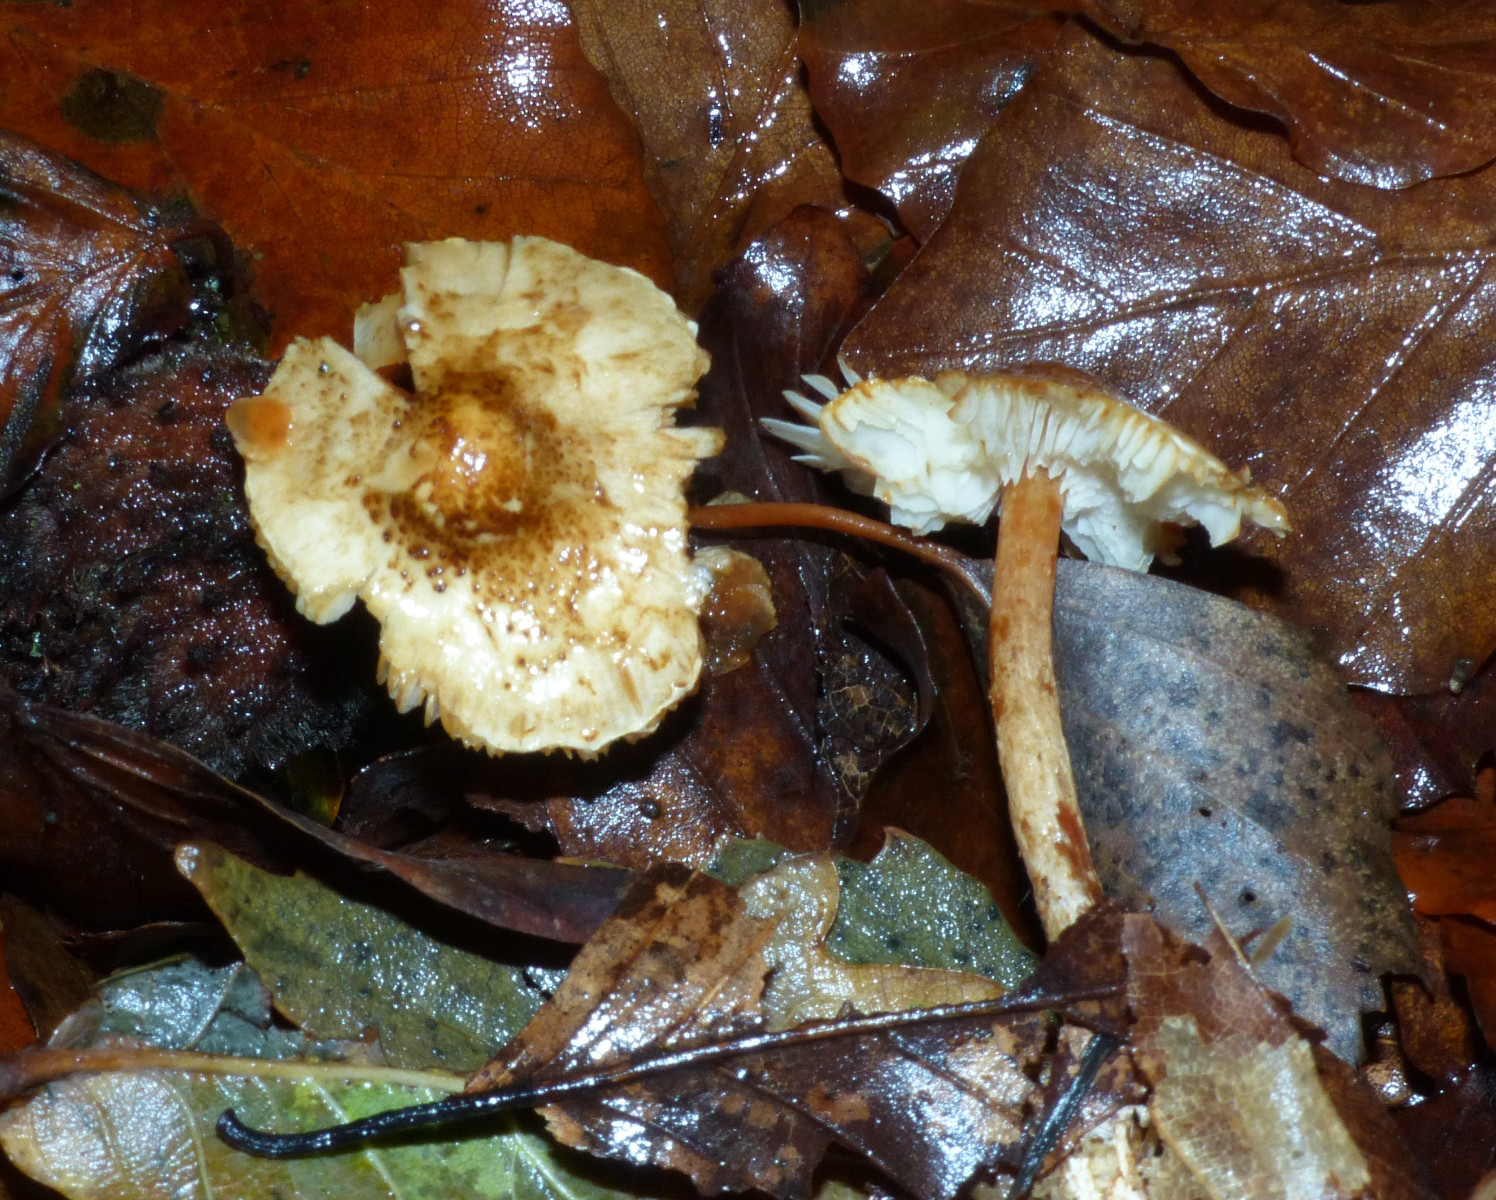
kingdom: Fungi
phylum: Basidiomycota
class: Agaricomycetes
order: Agaricales
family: Agaricaceae
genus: Lepiota
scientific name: Lepiota
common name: parasolhat
